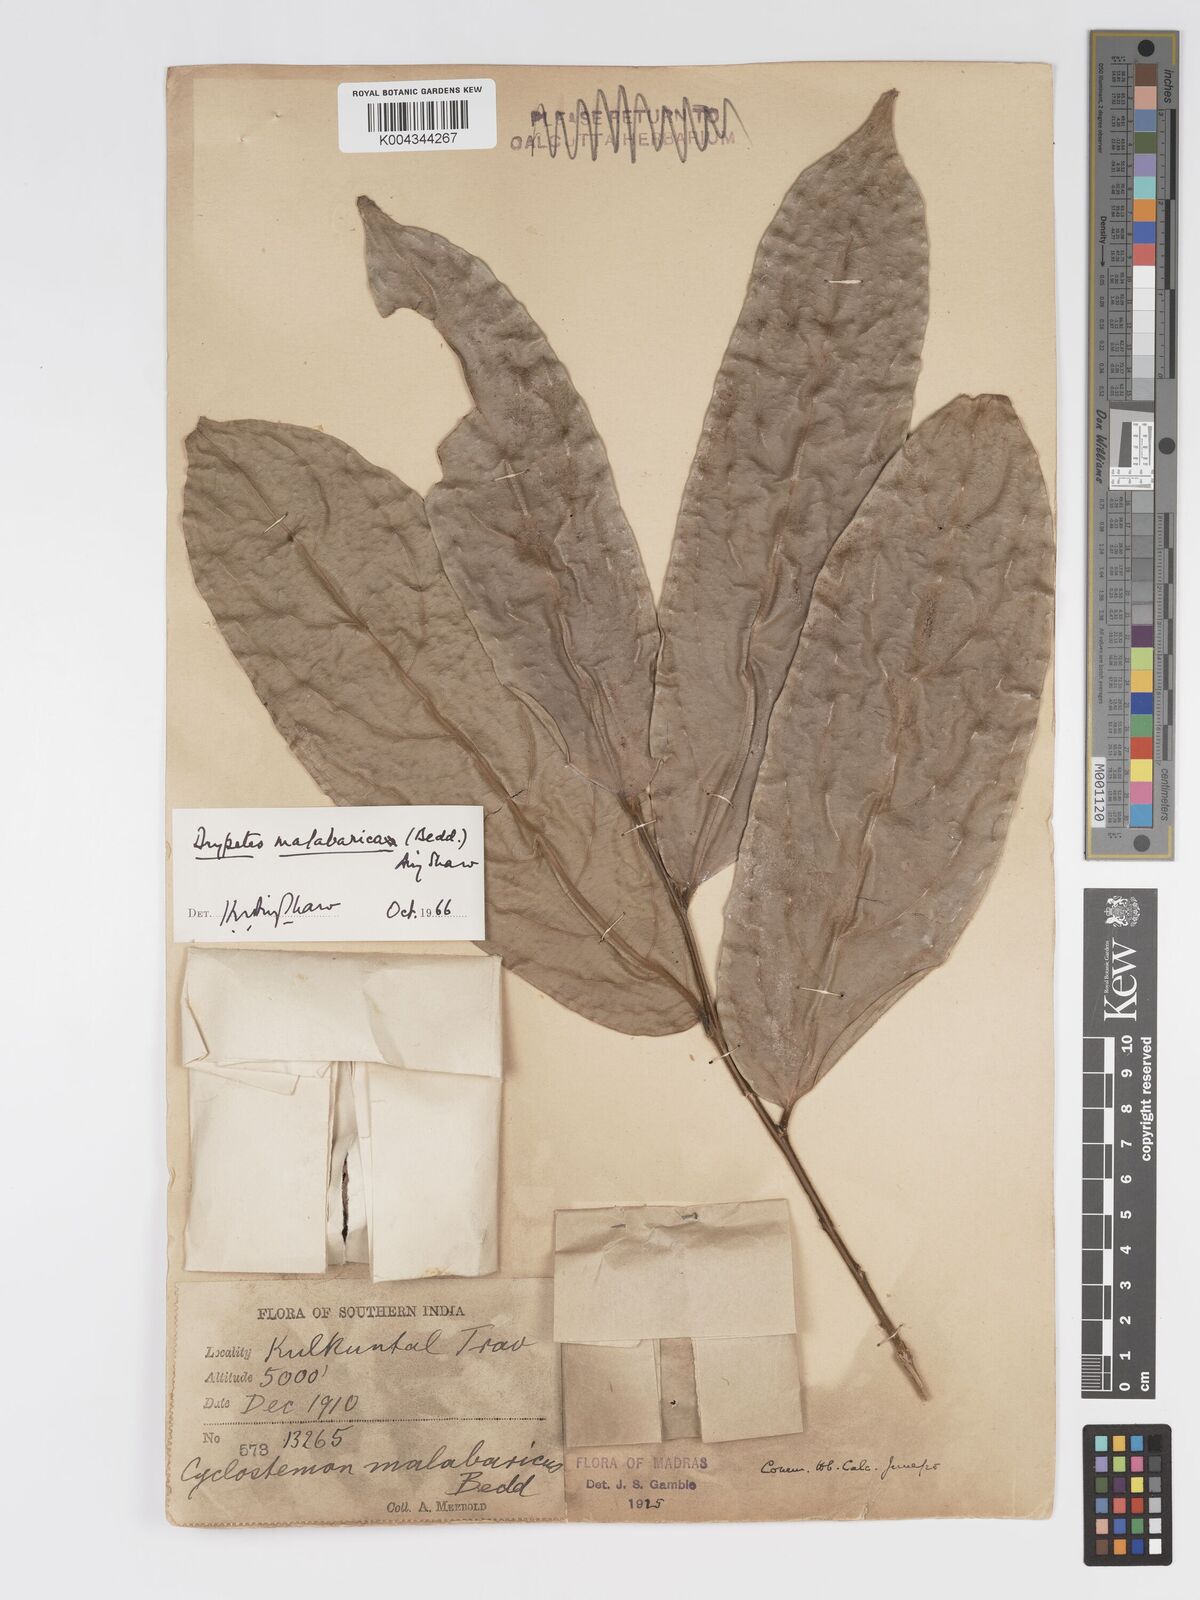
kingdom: Plantae
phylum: Tracheophyta
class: Magnoliopsida
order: Malpighiales
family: Putranjivaceae
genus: Drypetes
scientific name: Drypetes malabarica
